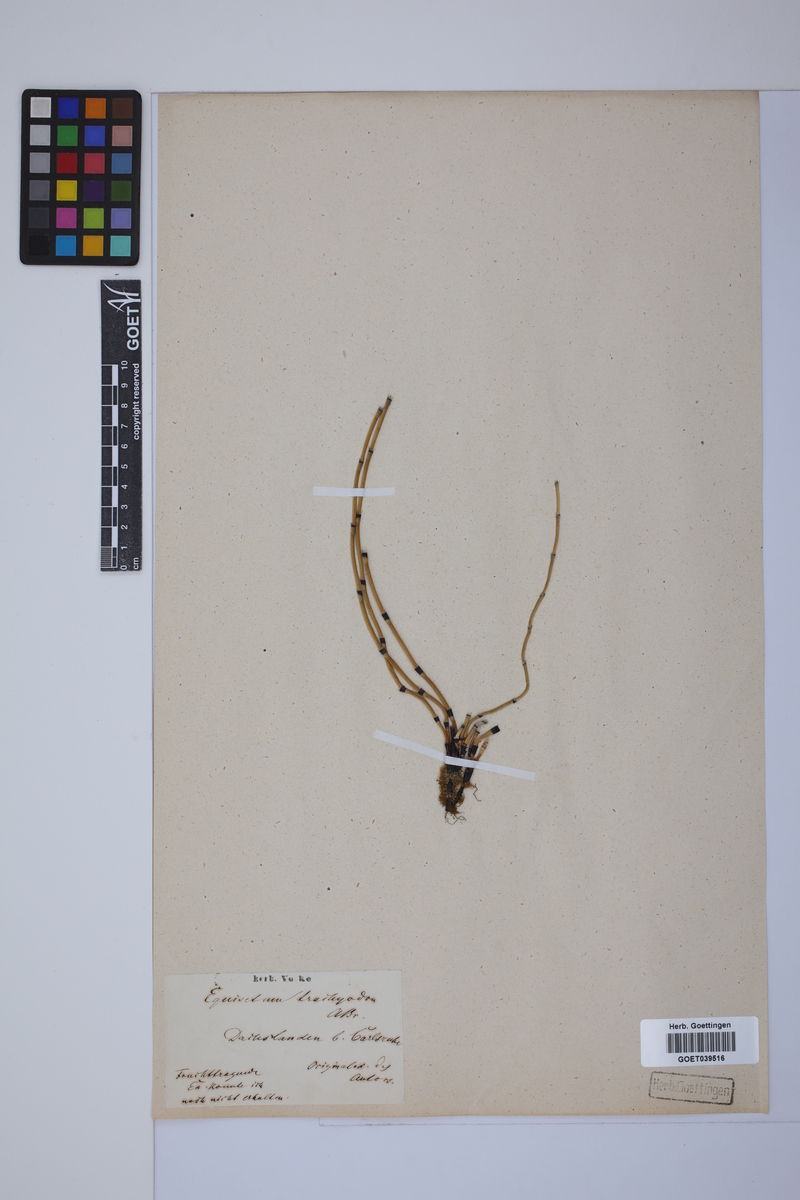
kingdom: Plantae
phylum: Tracheophyta
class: Polypodiopsida
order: Equisetales
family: Equisetaceae
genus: Equisetum
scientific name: Equisetum trachyodon
